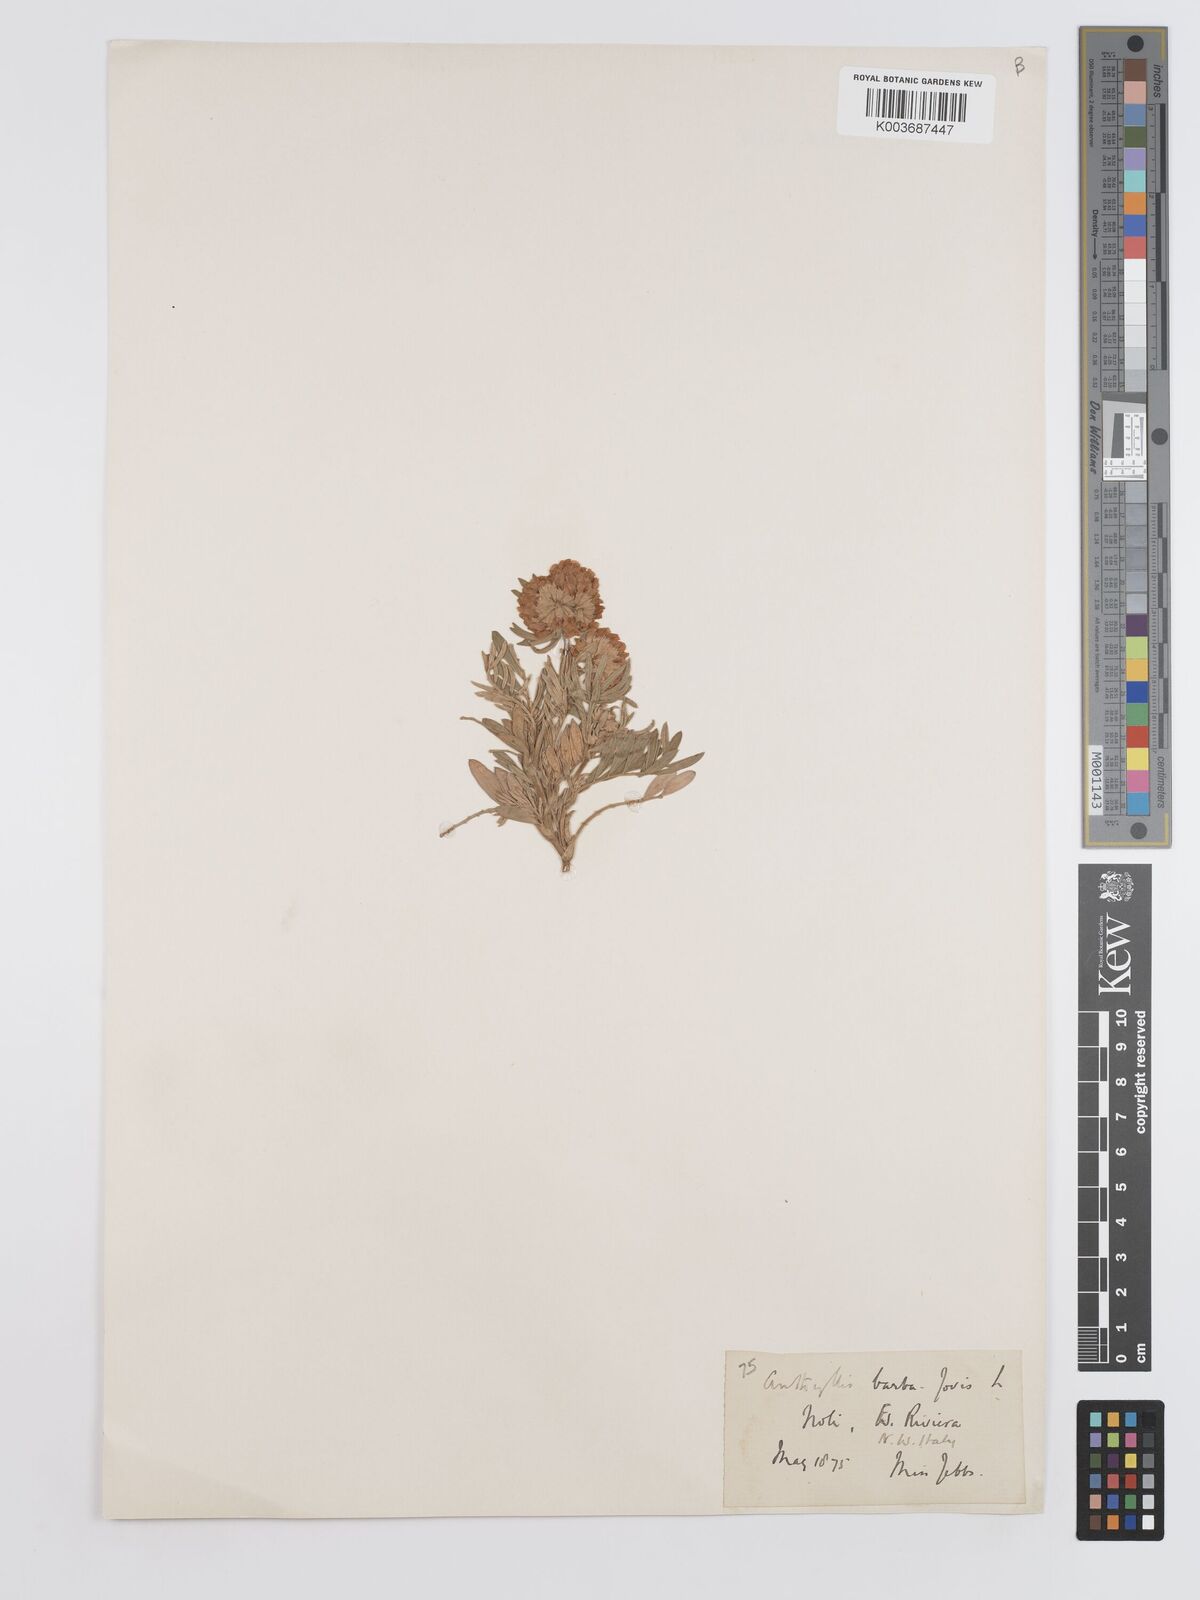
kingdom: Plantae
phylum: Tracheophyta
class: Magnoliopsida
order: Fabales
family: Fabaceae
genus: Anthyllis
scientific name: Anthyllis barba-jovis
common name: Jupiter's-beard
